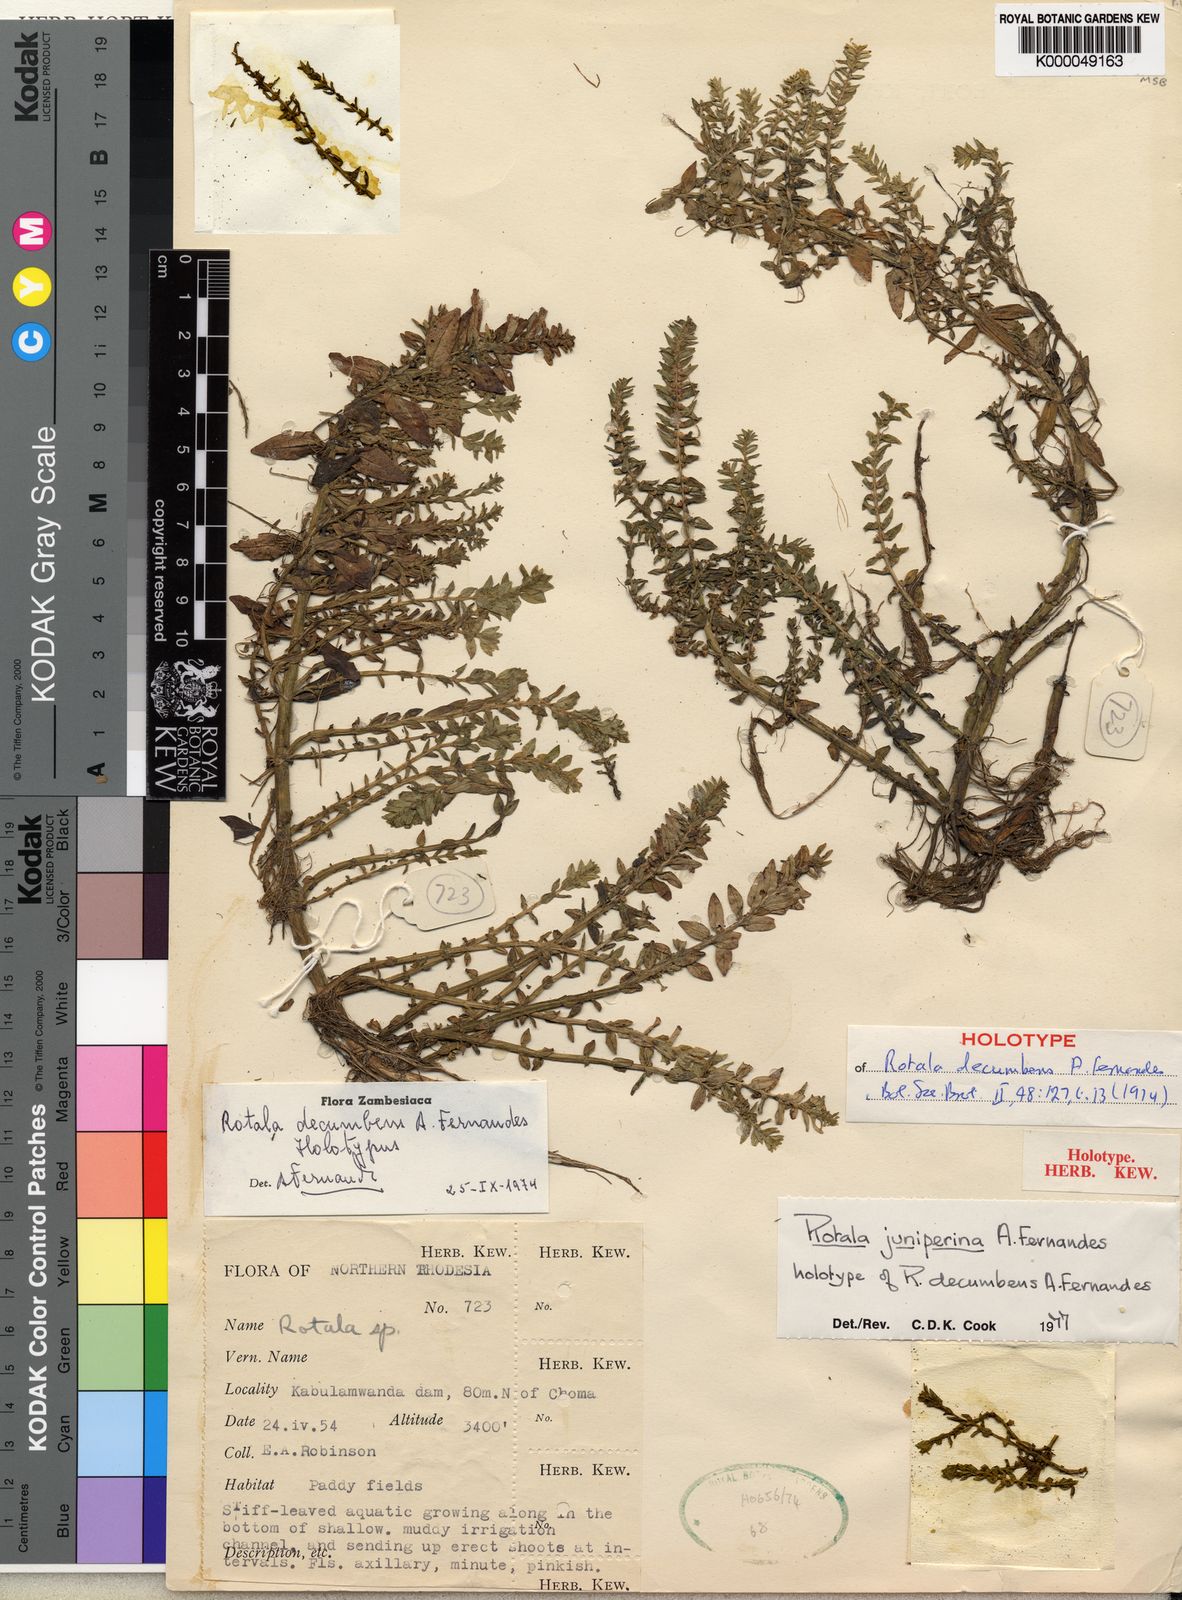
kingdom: Plantae
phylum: Tracheophyta
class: Magnoliopsida
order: Myrtales
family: Lythraceae
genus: Rotala
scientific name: Rotala juniperina
